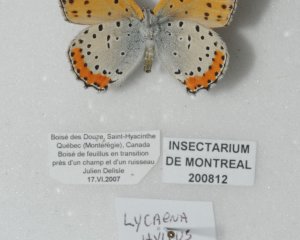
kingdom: Animalia
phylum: Arthropoda
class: Insecta
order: Lepidoptera
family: Sesiidae
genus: Sesia
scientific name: Sesia Lycaena hyllus
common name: Bronze Copper
